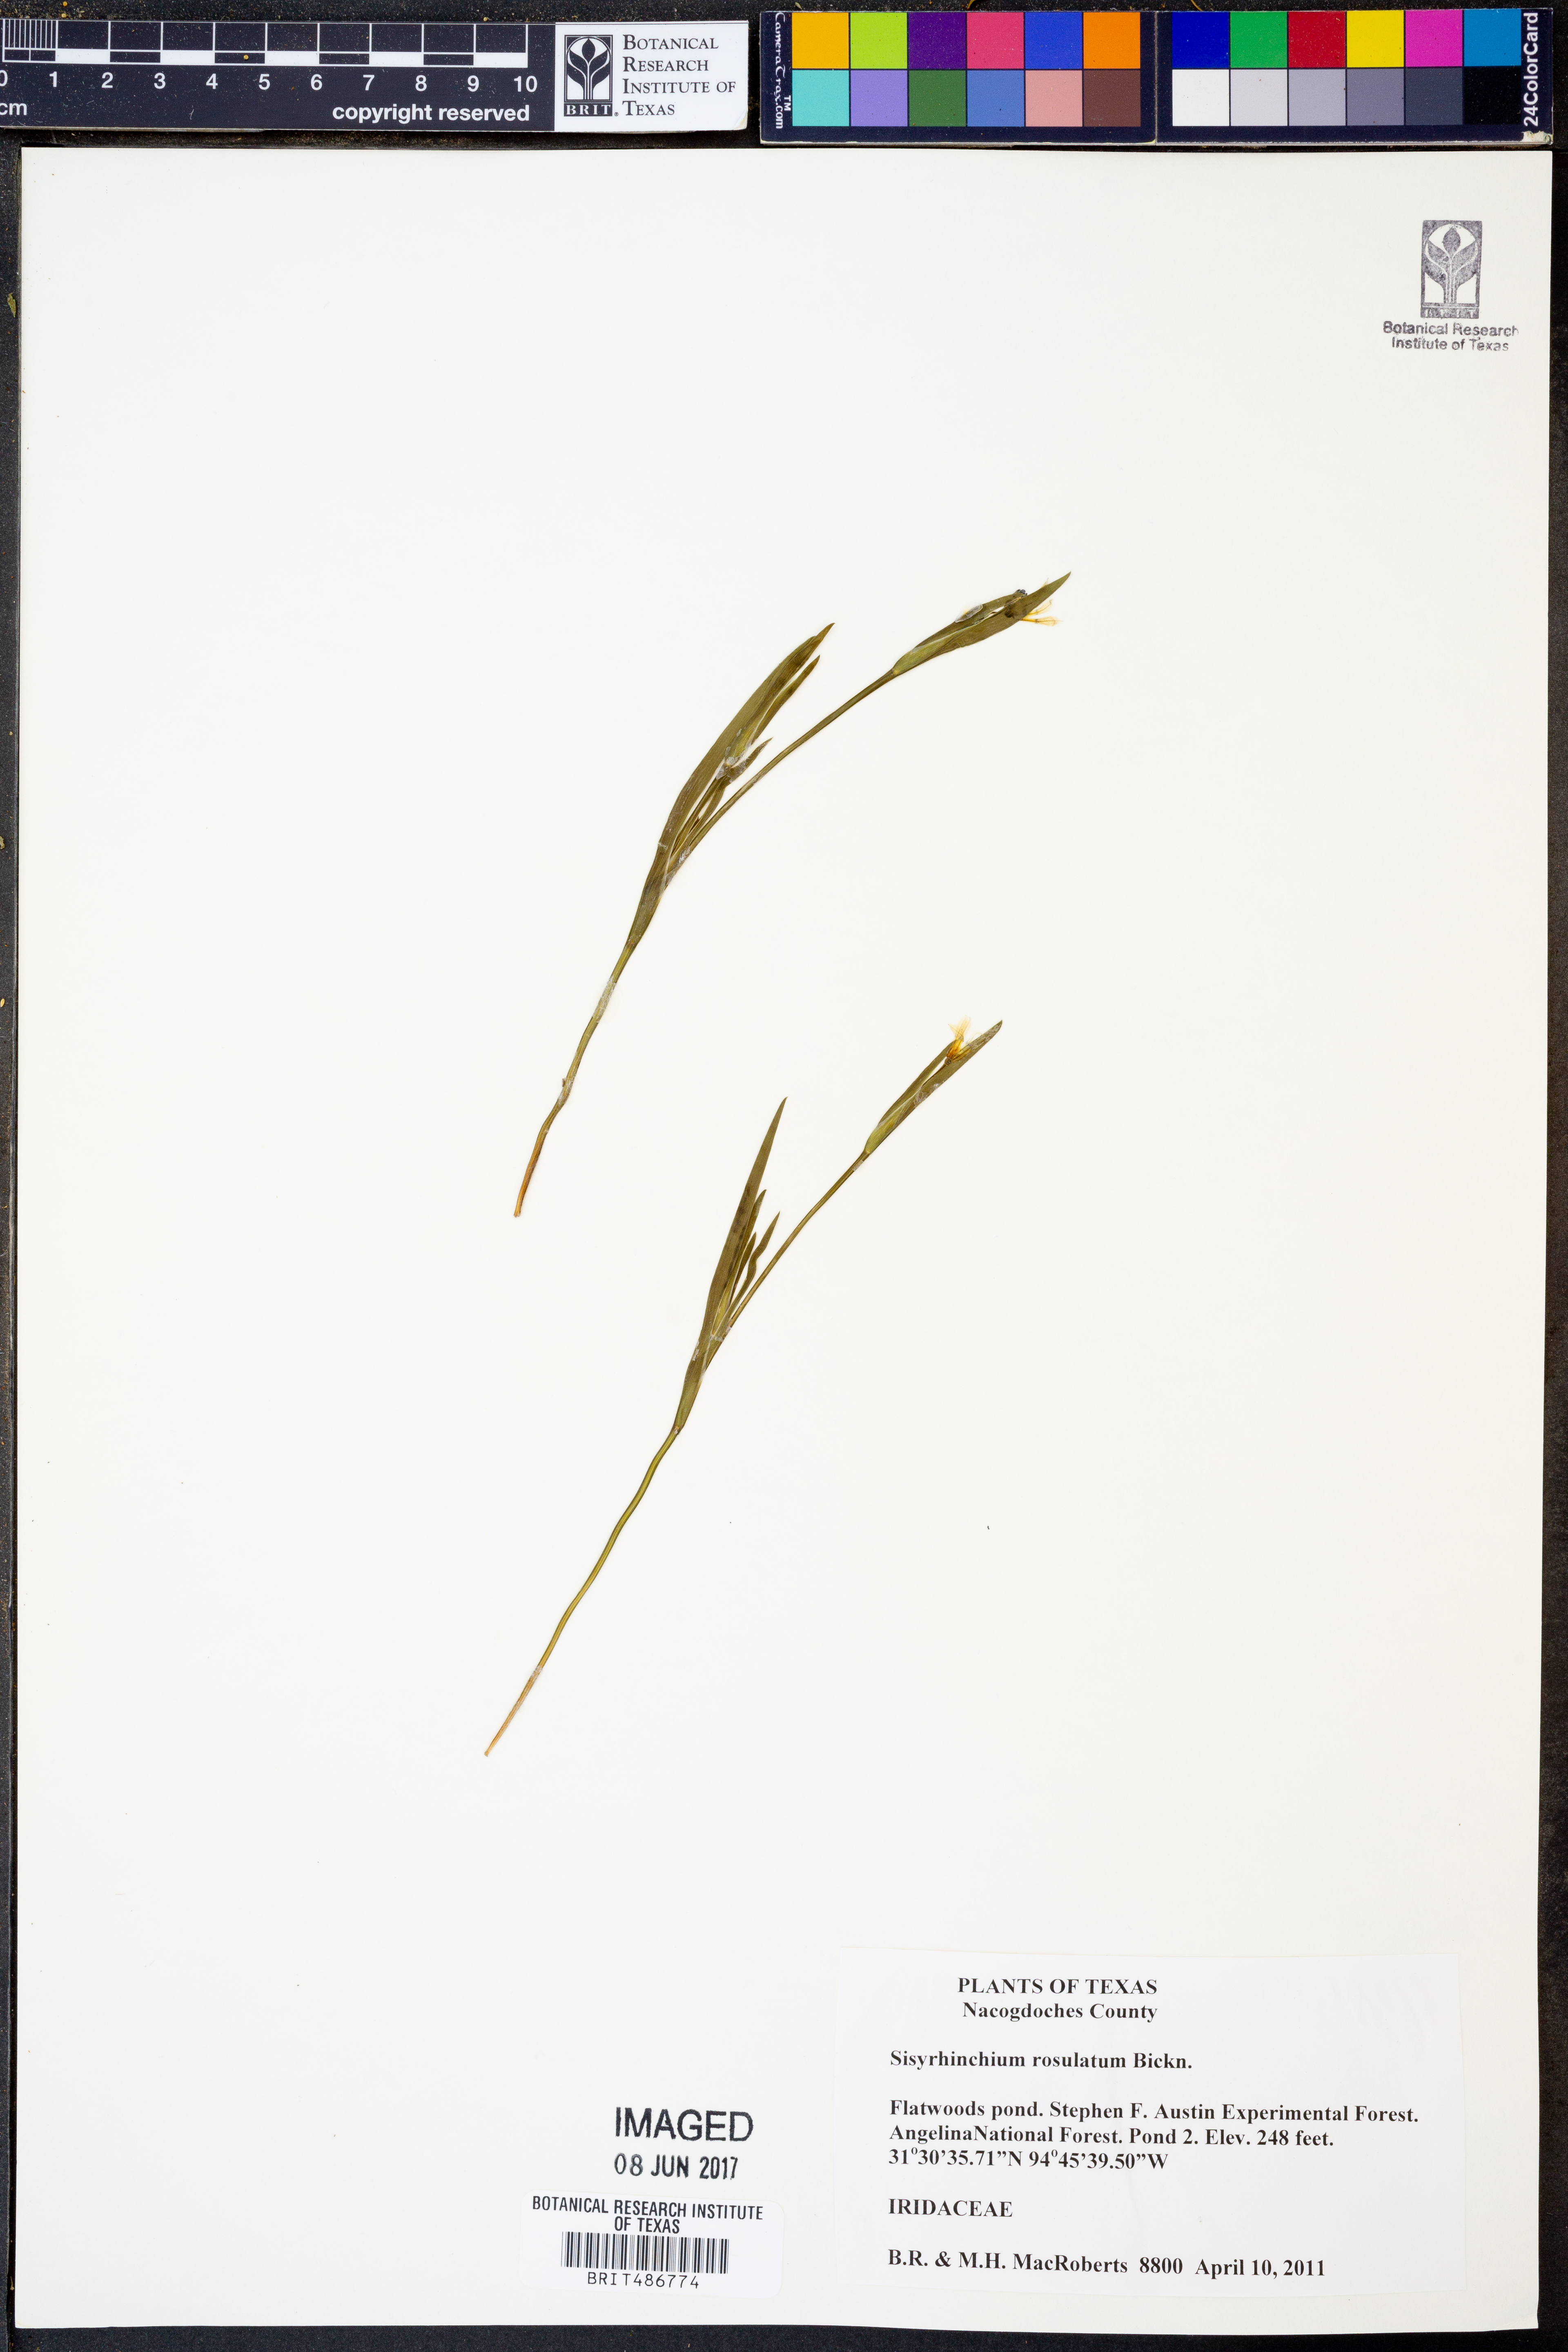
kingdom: Plantae
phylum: Tracheophyta
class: Liliopsida
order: Asparagales
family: Iridaceae
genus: Sisyrinchium
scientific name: Sisyrinchium rosulatum
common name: Annual blue-eyed grass
